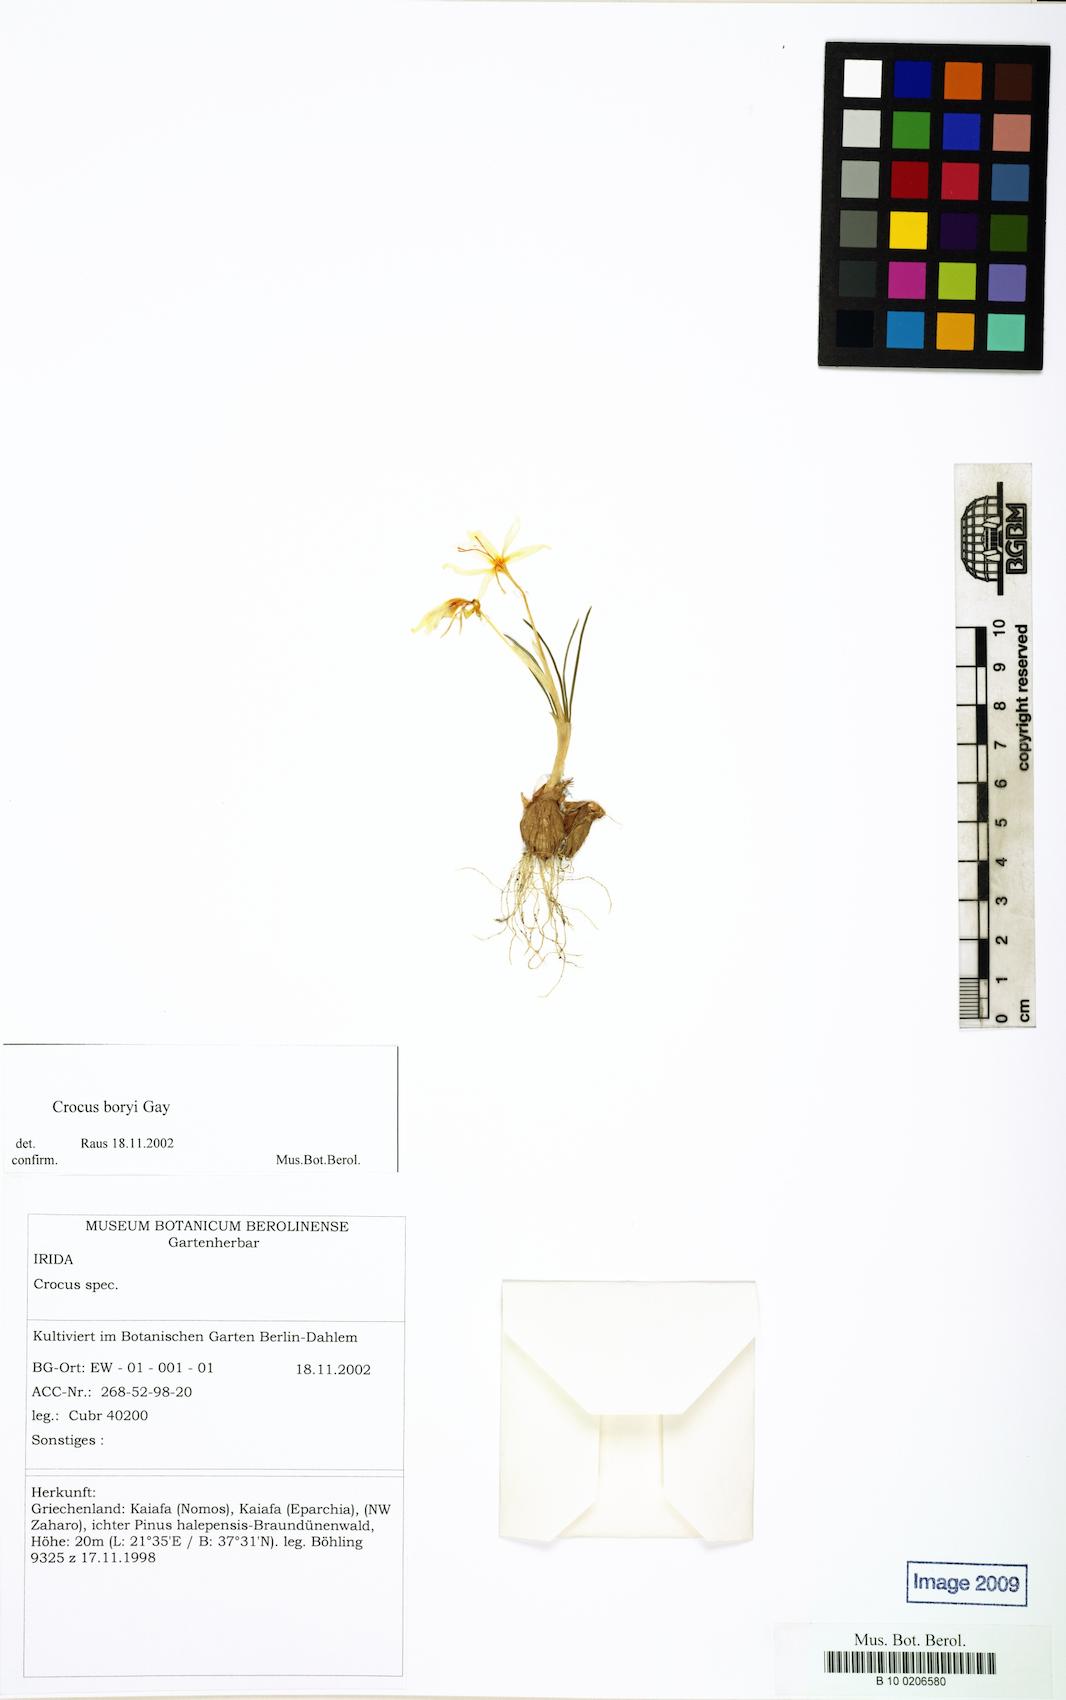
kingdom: Plantae
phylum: Tracheophyta
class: Liliopsida
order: Asparagales
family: Iridaceae
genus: Crocus
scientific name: Crocus boryi
